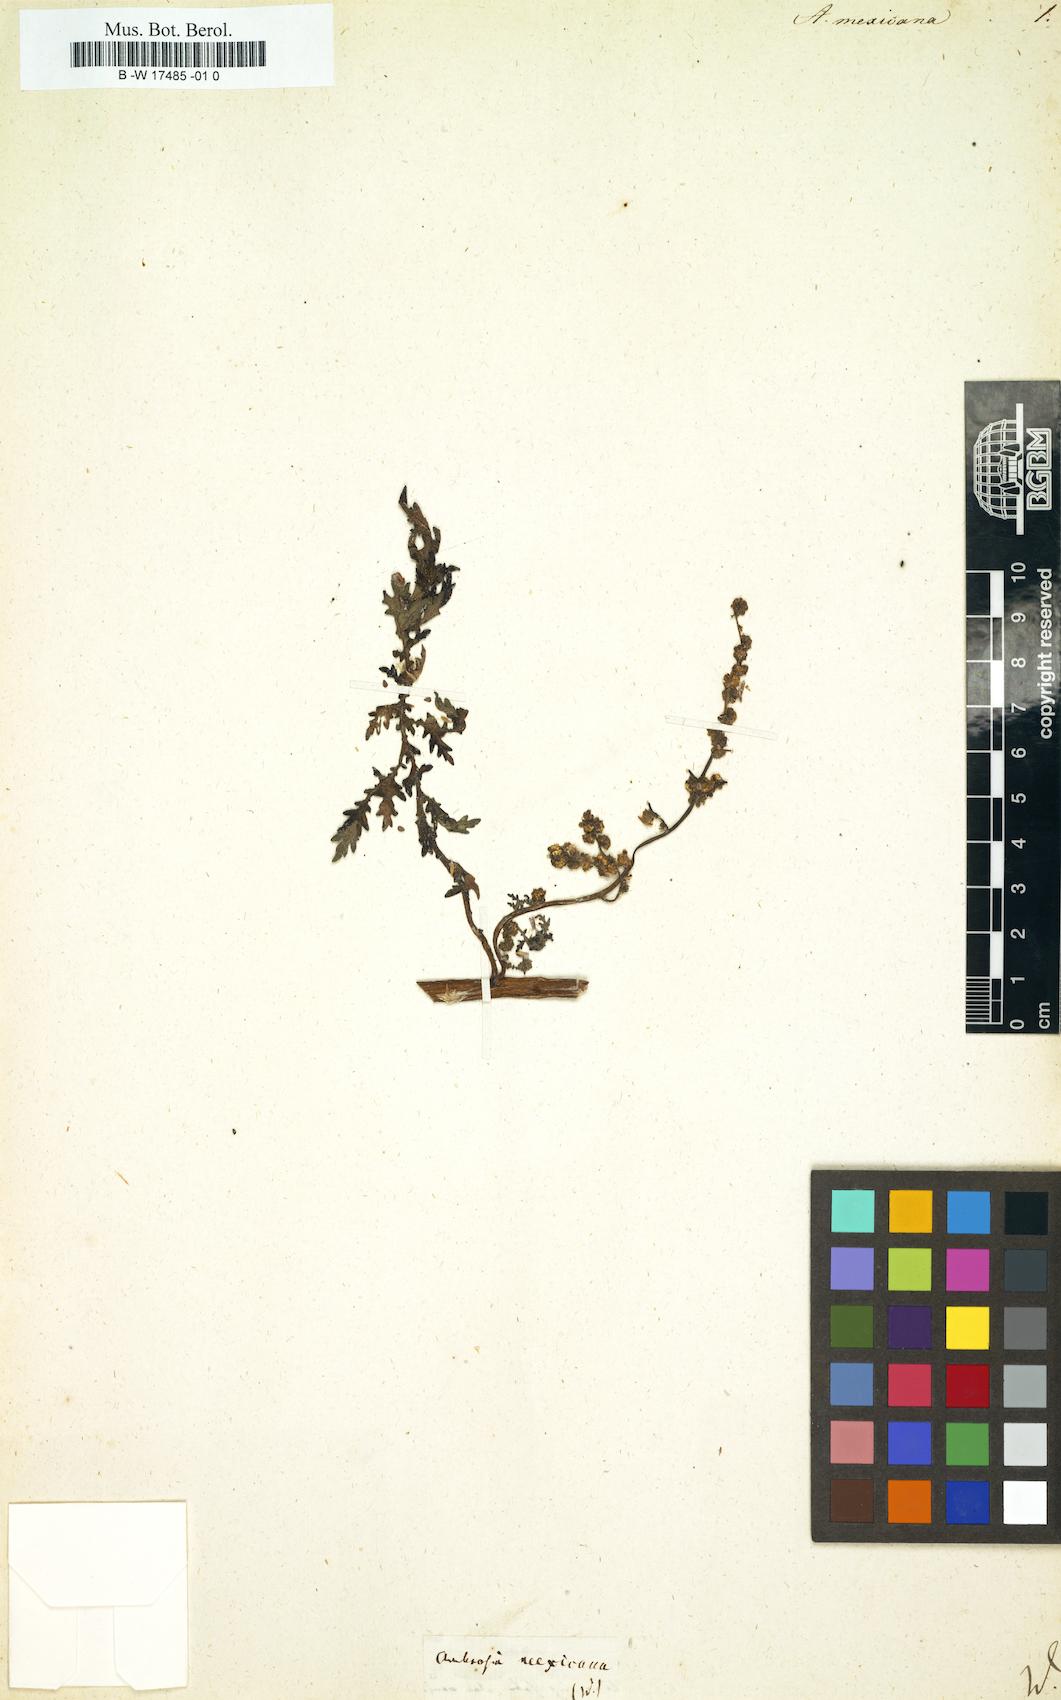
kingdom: Plantae
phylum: Tracheophyta
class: Magnoliopsida
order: Asterales
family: Asteraceae
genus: Ambrosia
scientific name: Ambrosia mexicana
